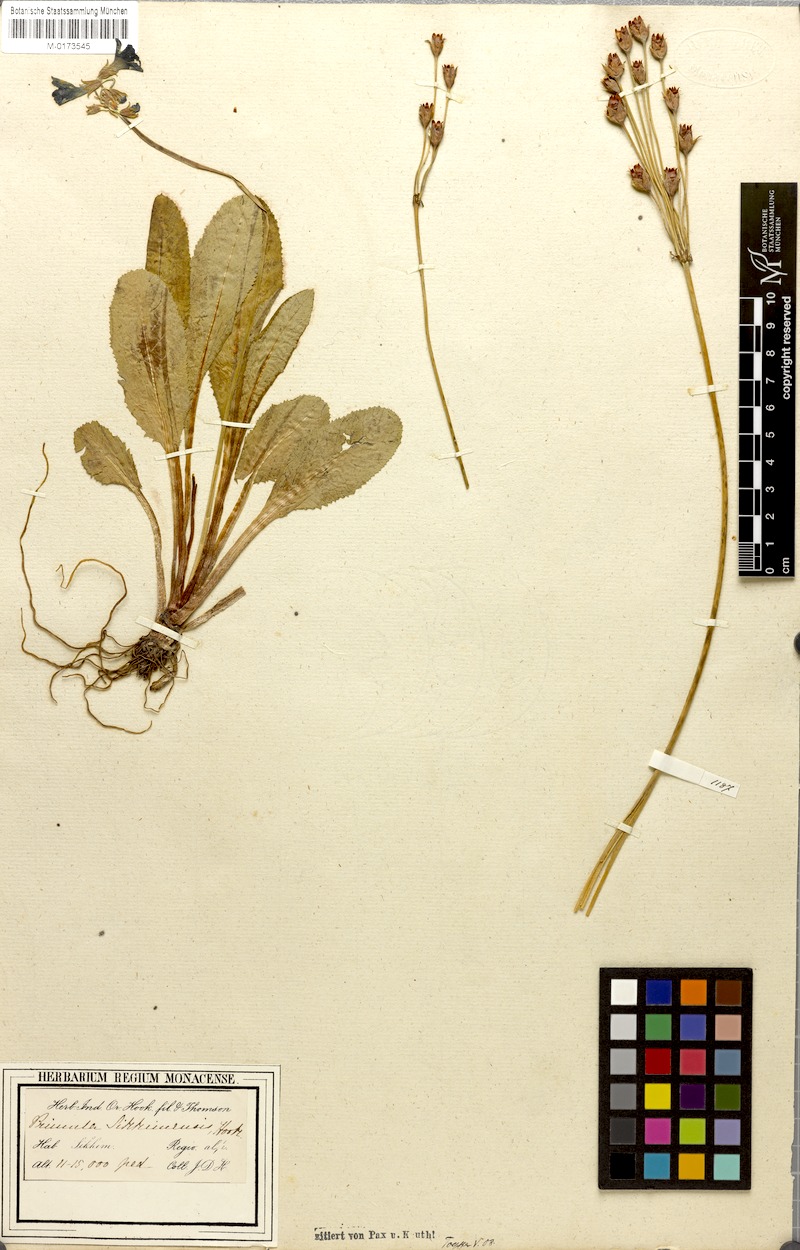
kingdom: Plantae
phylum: Tracheophyta
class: Magnoliopsida
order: Ericales
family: Primulaceae
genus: Primula
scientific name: Primula sikkimensis
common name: Sikkim cowslip
